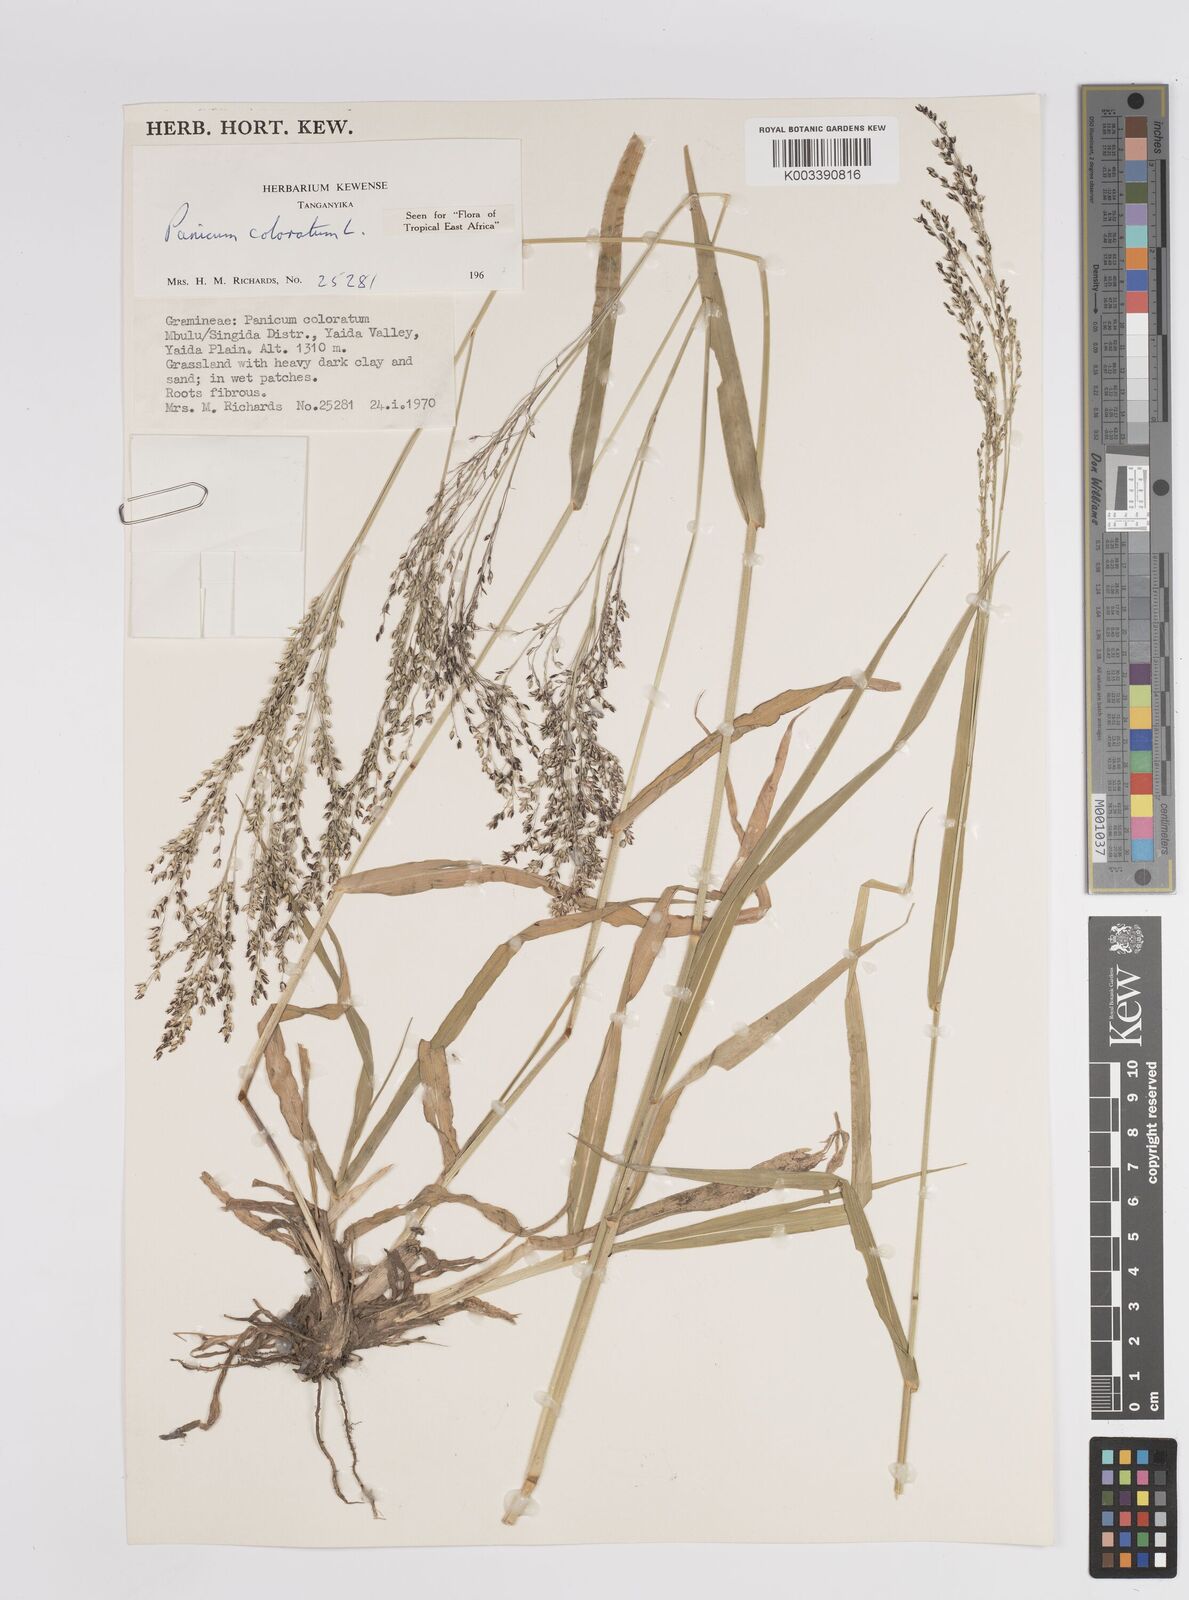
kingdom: Plantae
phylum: Tracheophyta
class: Liliopsida
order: Poales
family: Poaceae
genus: Panicum
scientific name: Panicum coloratum
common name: Kleingrass
